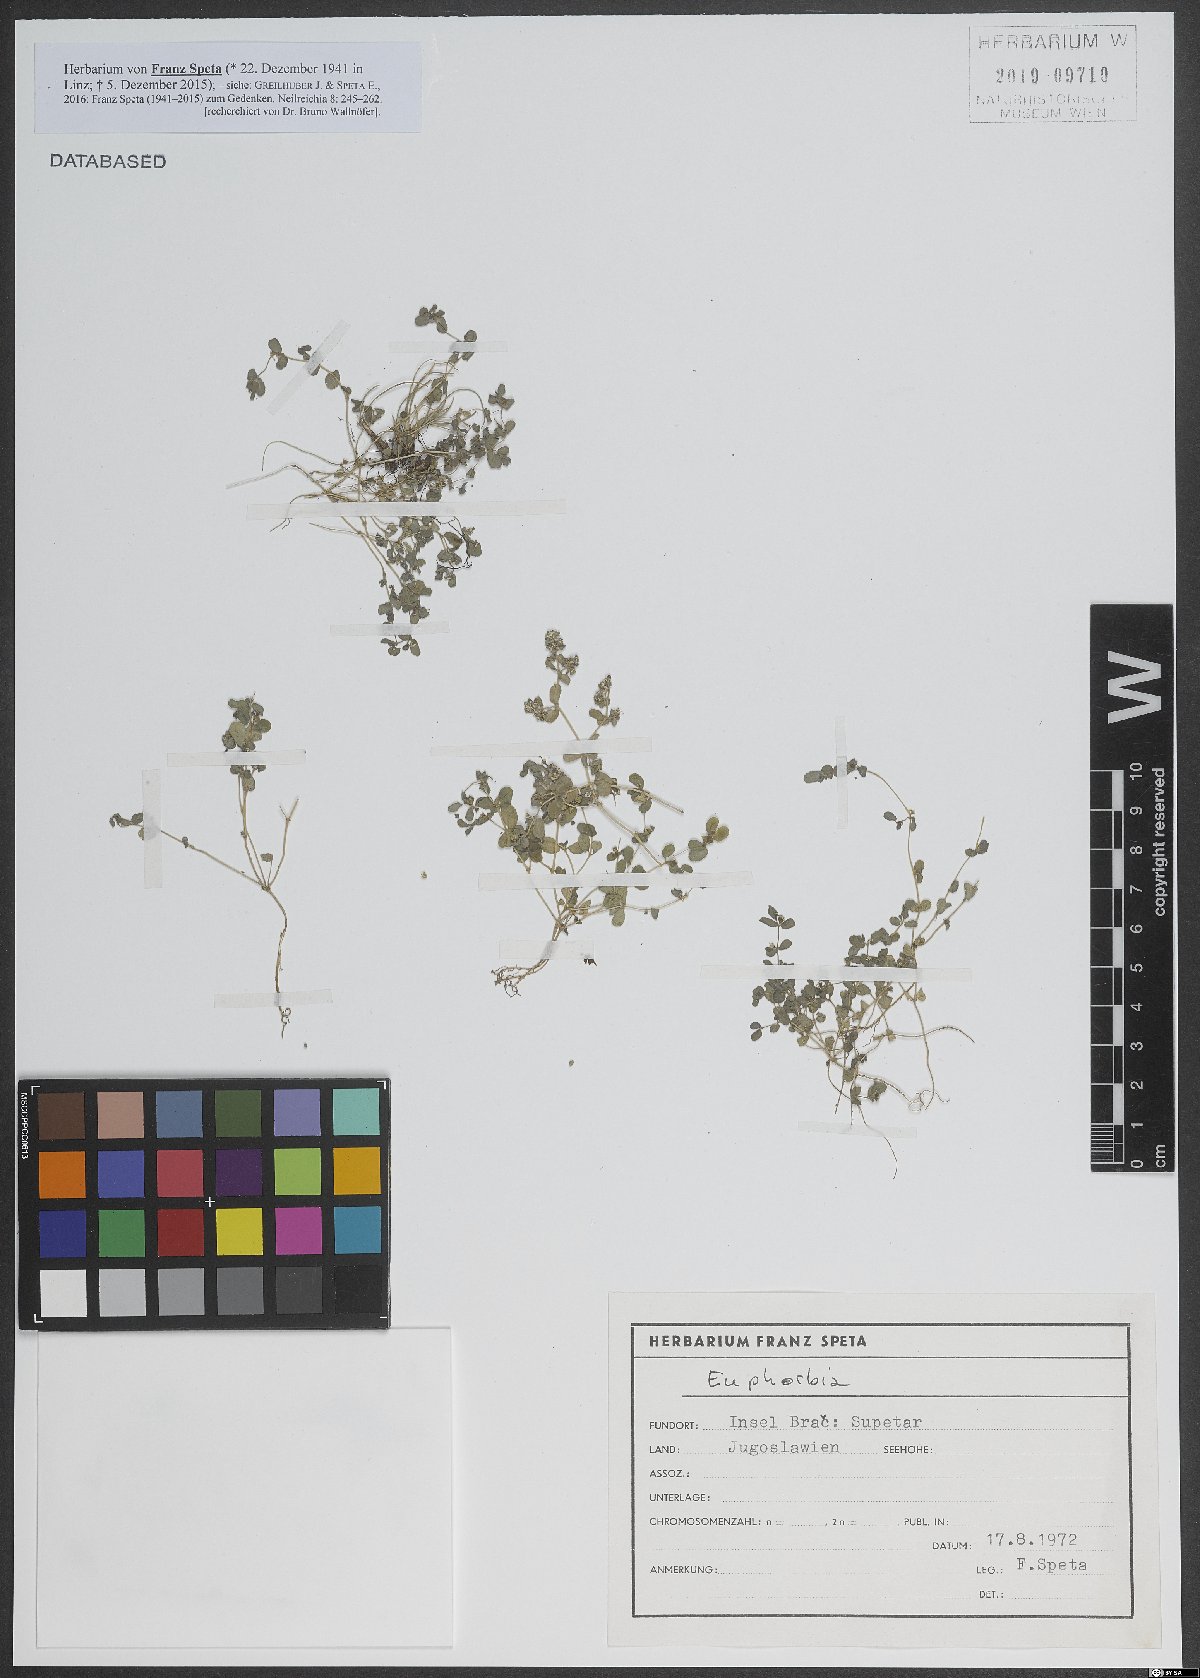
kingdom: Plantae
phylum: Tracheophyta
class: Magnoliopsida
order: Malpighiales
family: Euphorbiaceae
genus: Euphorbia
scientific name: Euphorbia
